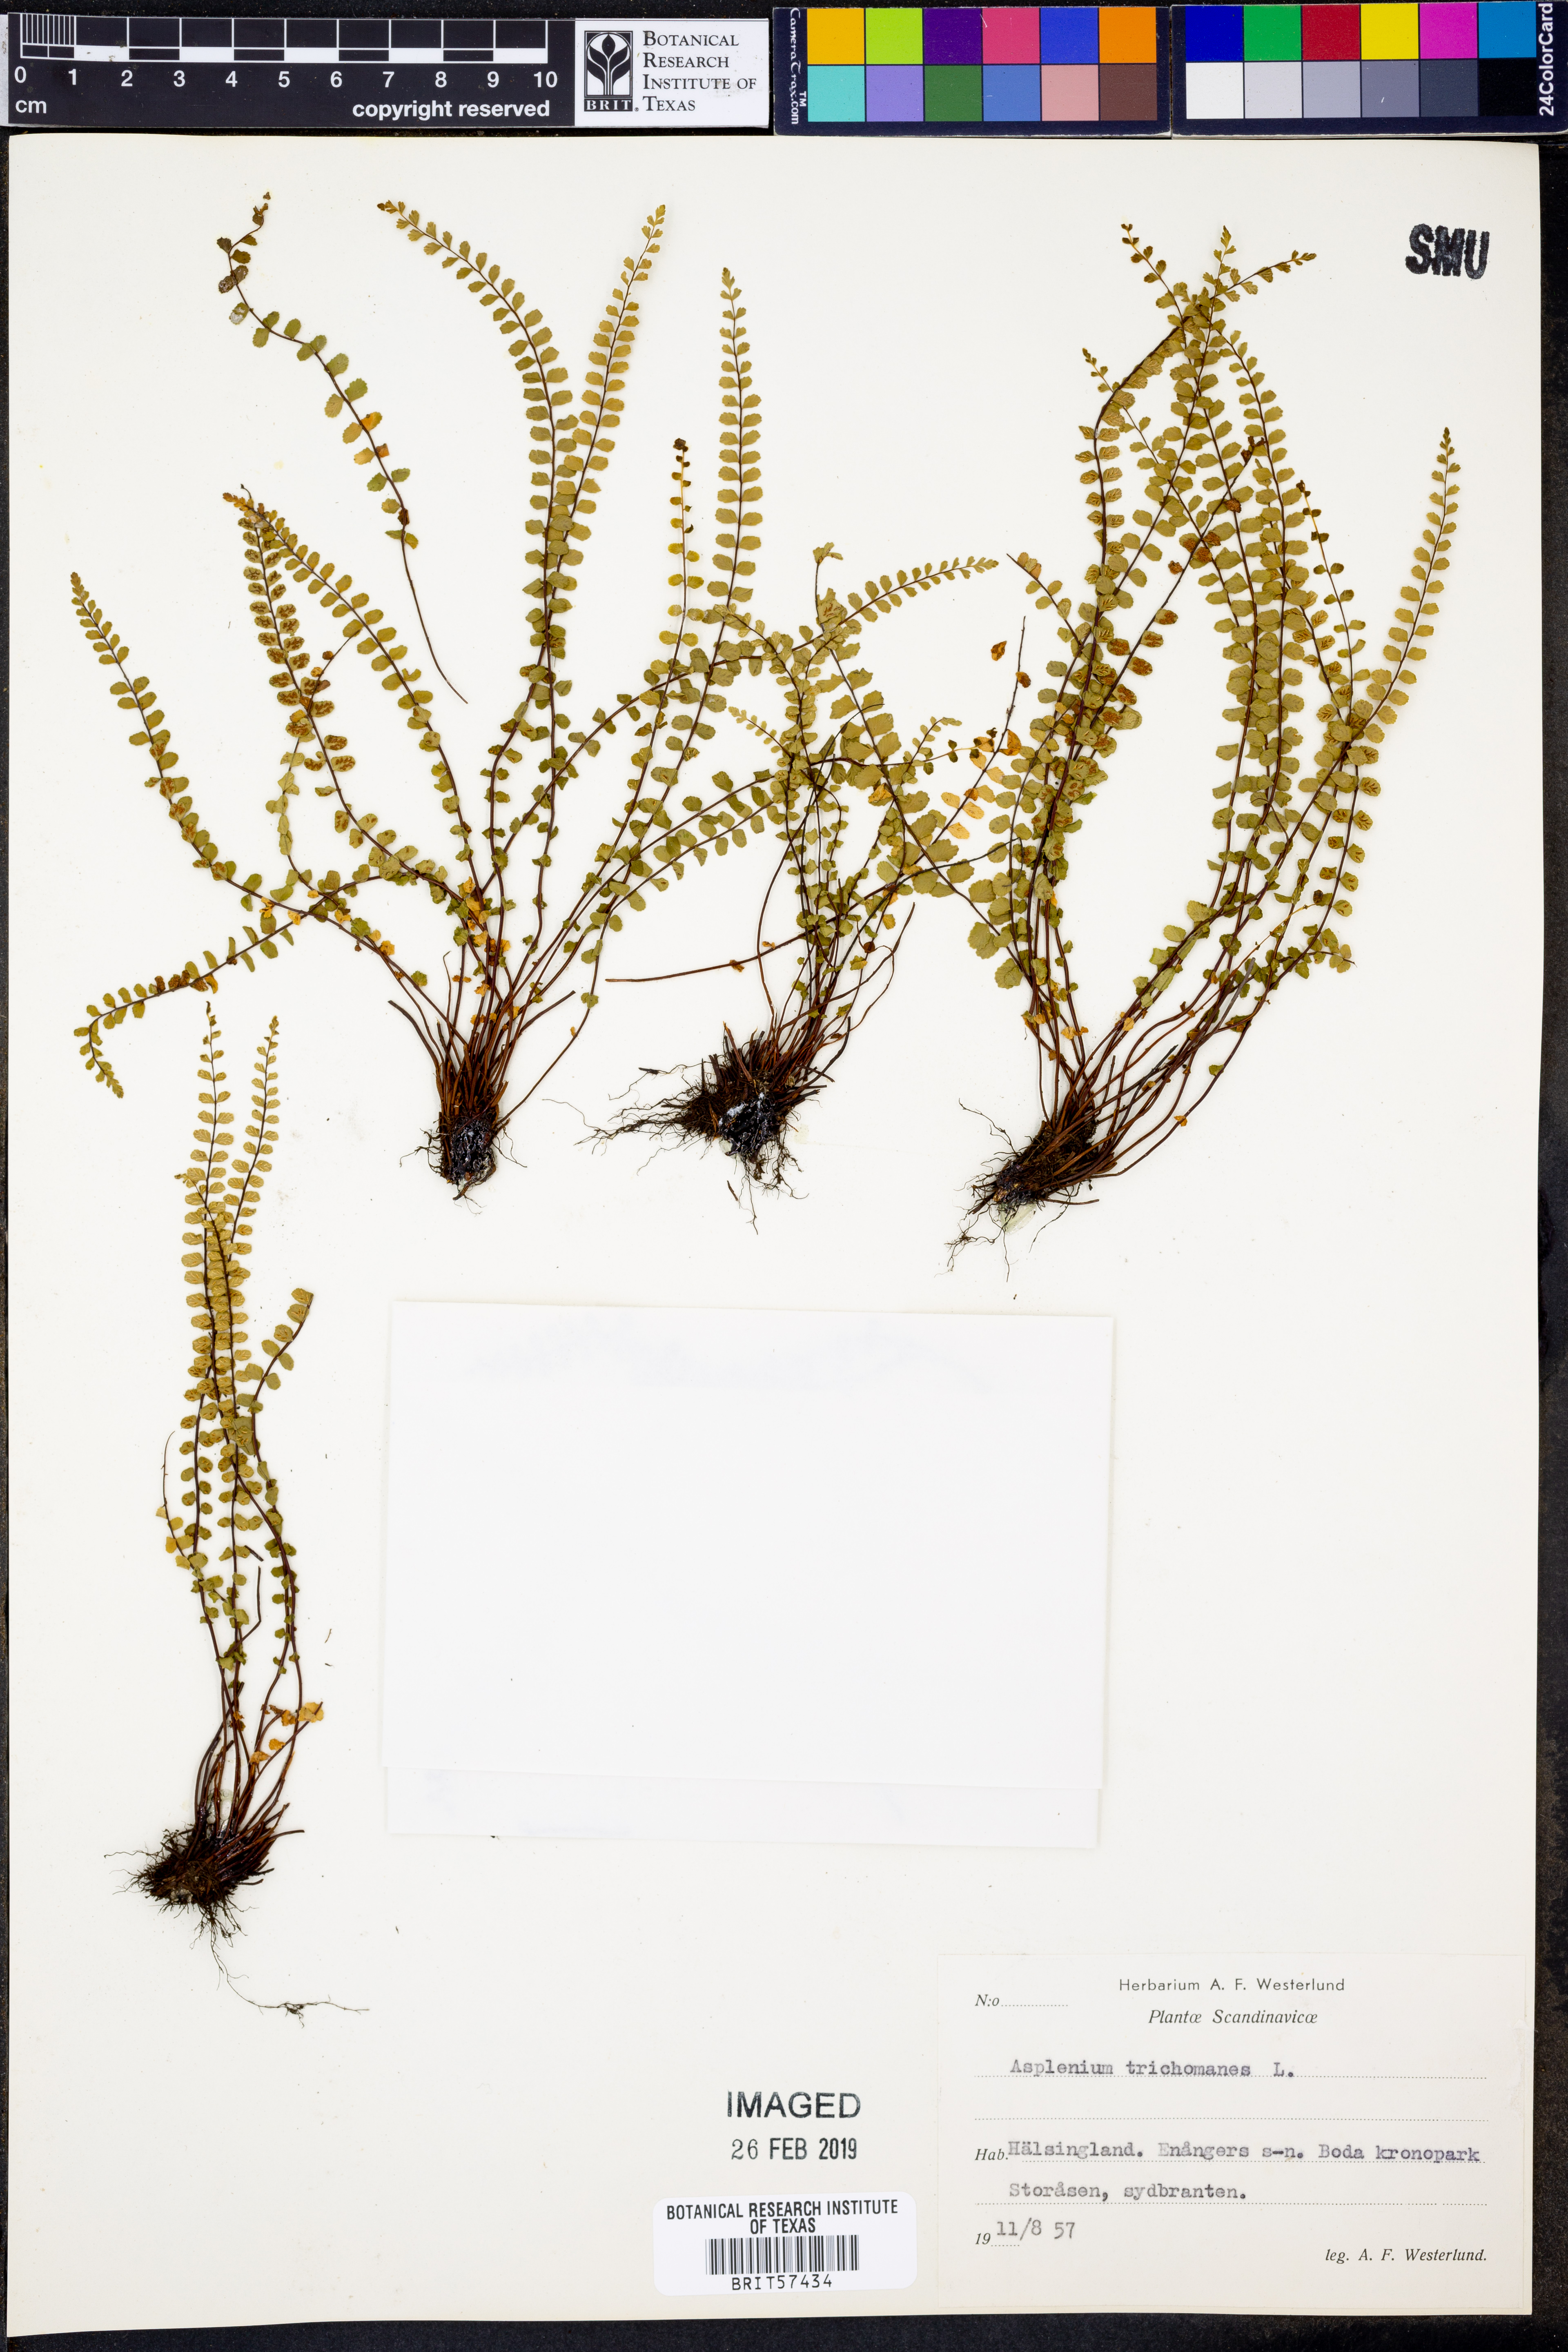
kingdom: Plantae
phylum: Tracheophyta
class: Polypodiopsida
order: Polypodiales
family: Aspleniaceae
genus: Asplenium
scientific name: Asplenium trichomanes
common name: Maidenhair spleenwort
